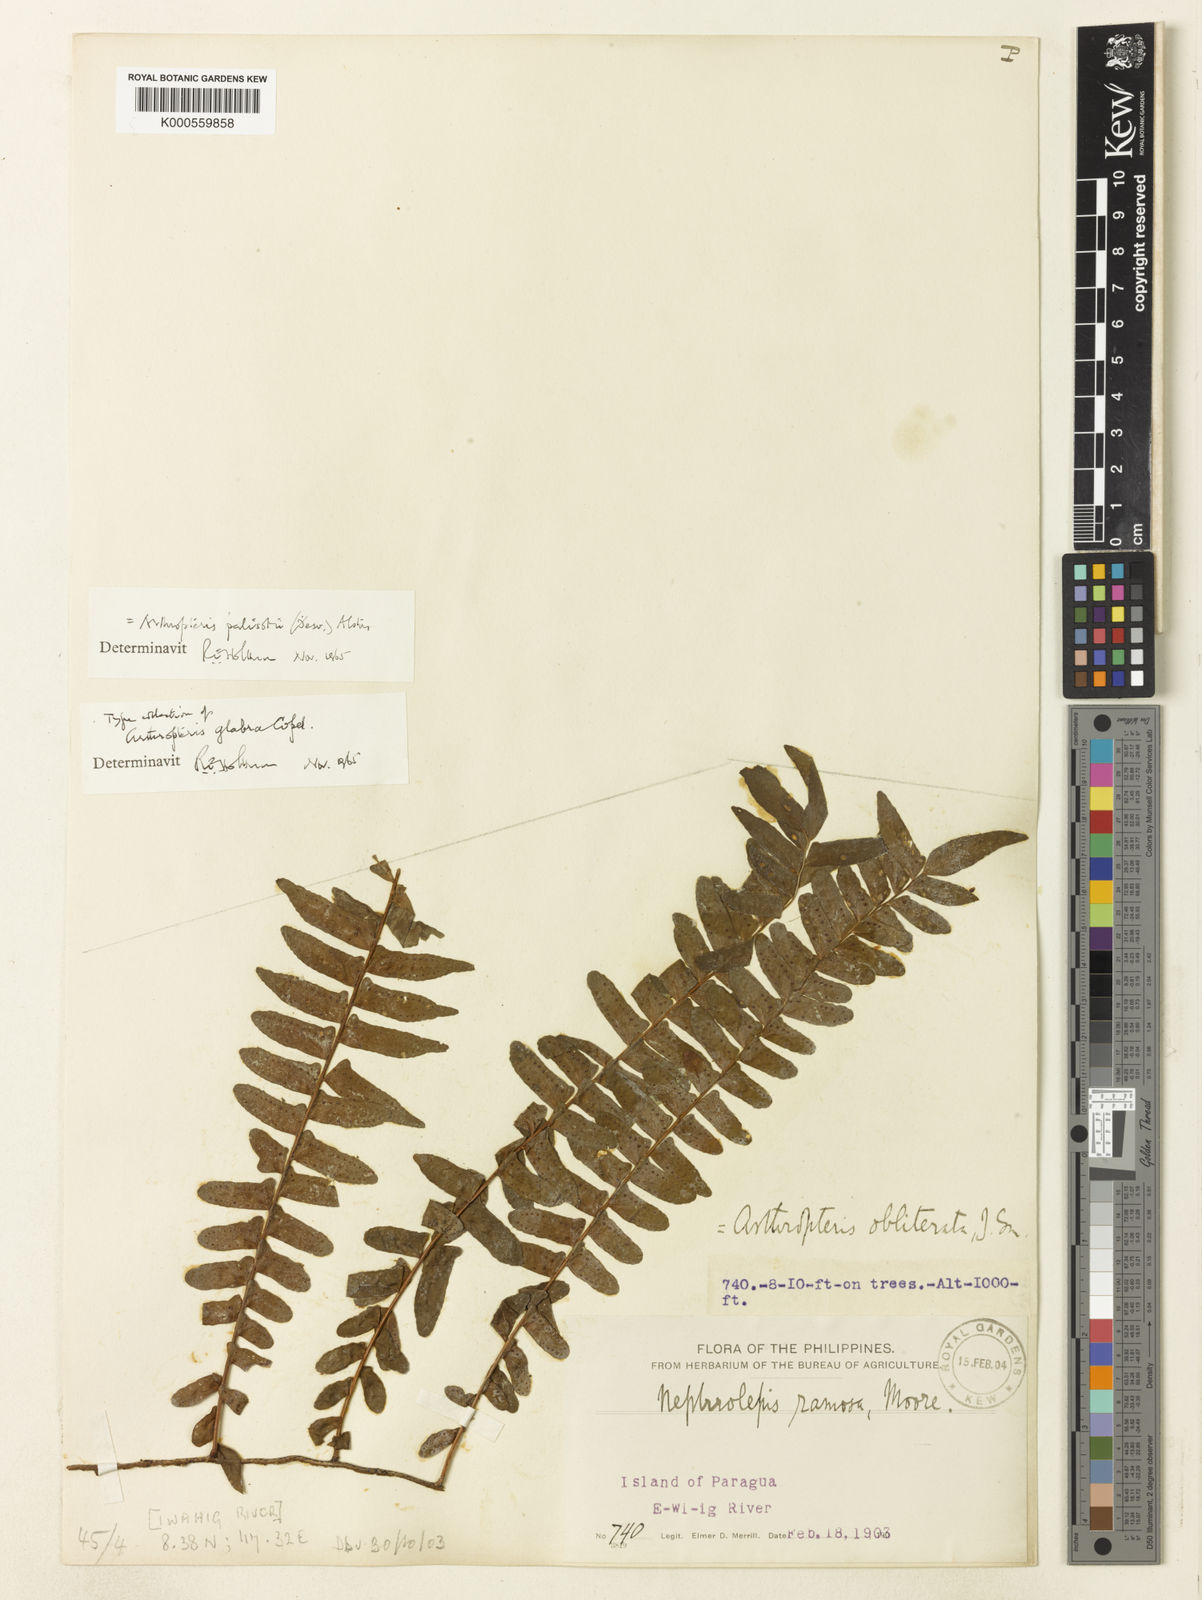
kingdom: Plantae
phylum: Tracheophyta
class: Polypodiopsida
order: Polypodiales
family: Tectariaceae
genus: Arthropteris
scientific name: Arthropteris palisotii
